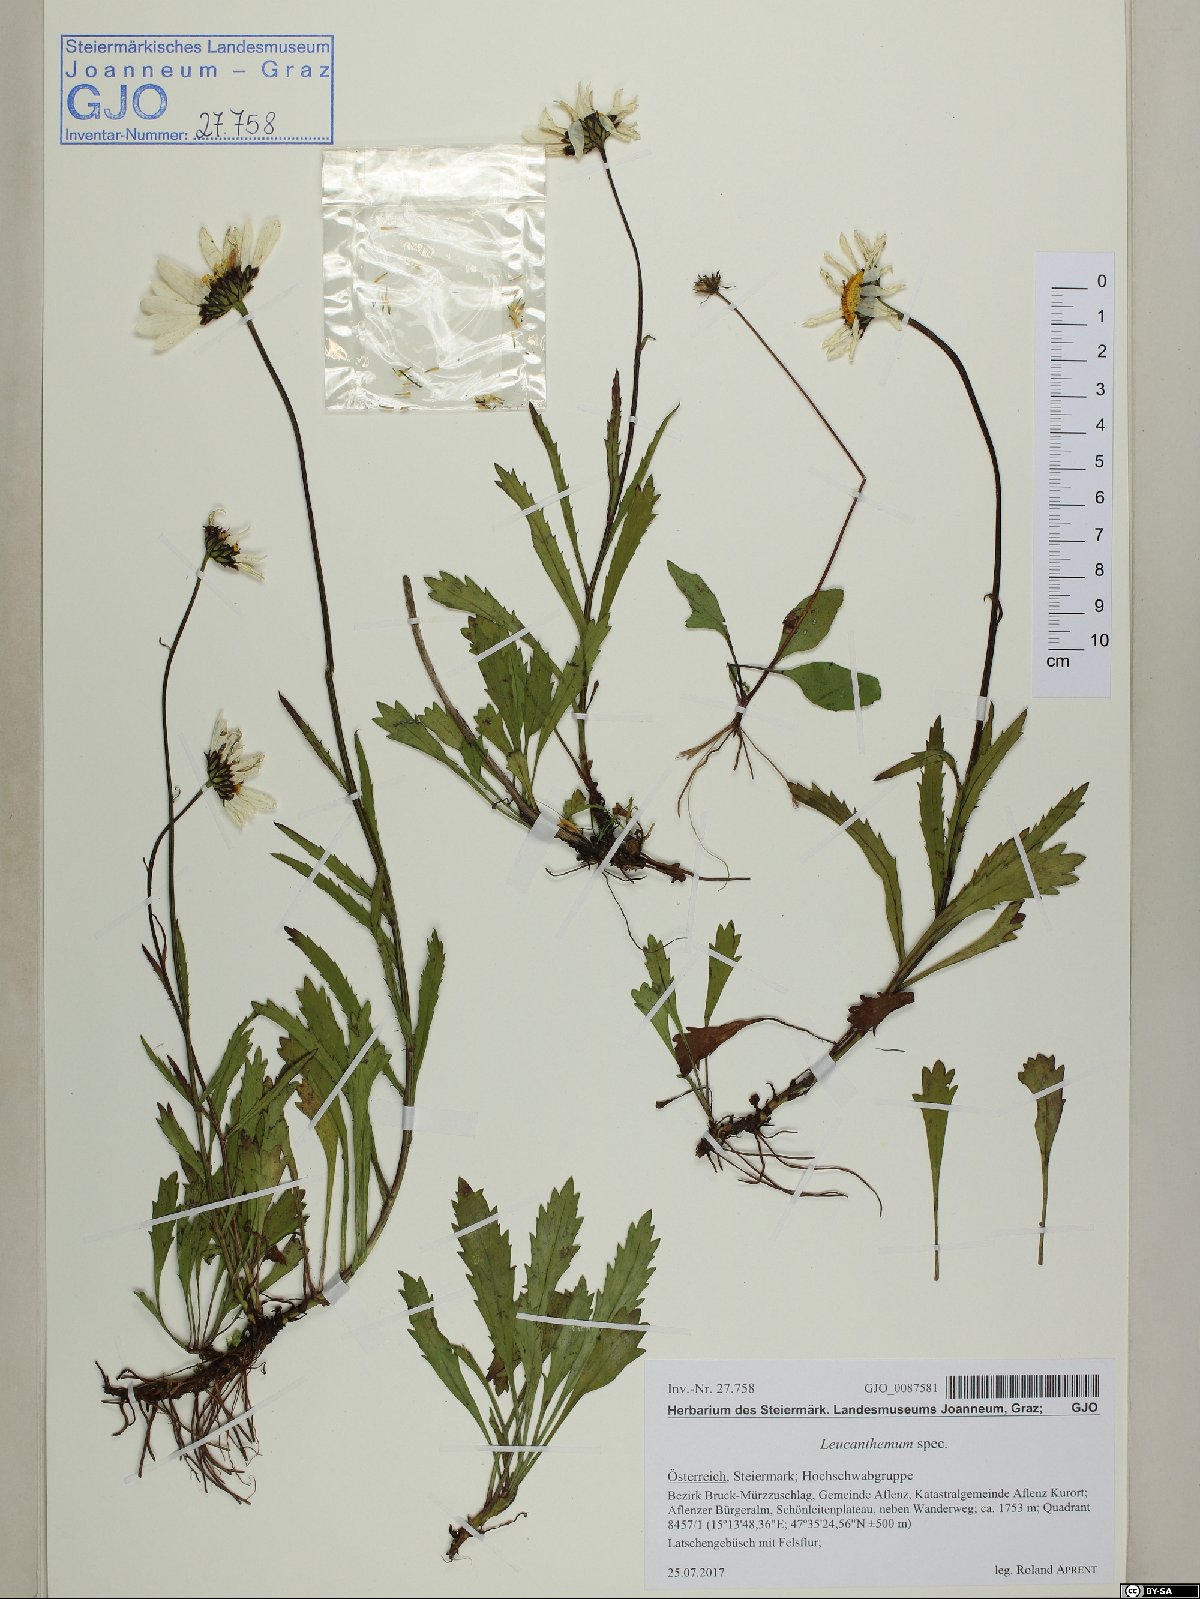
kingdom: Plantae
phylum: Tracheophyta
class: Magnoliopsida
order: Asterales
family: Asteraceae
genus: Leucanthemum
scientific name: Leucanthemum
